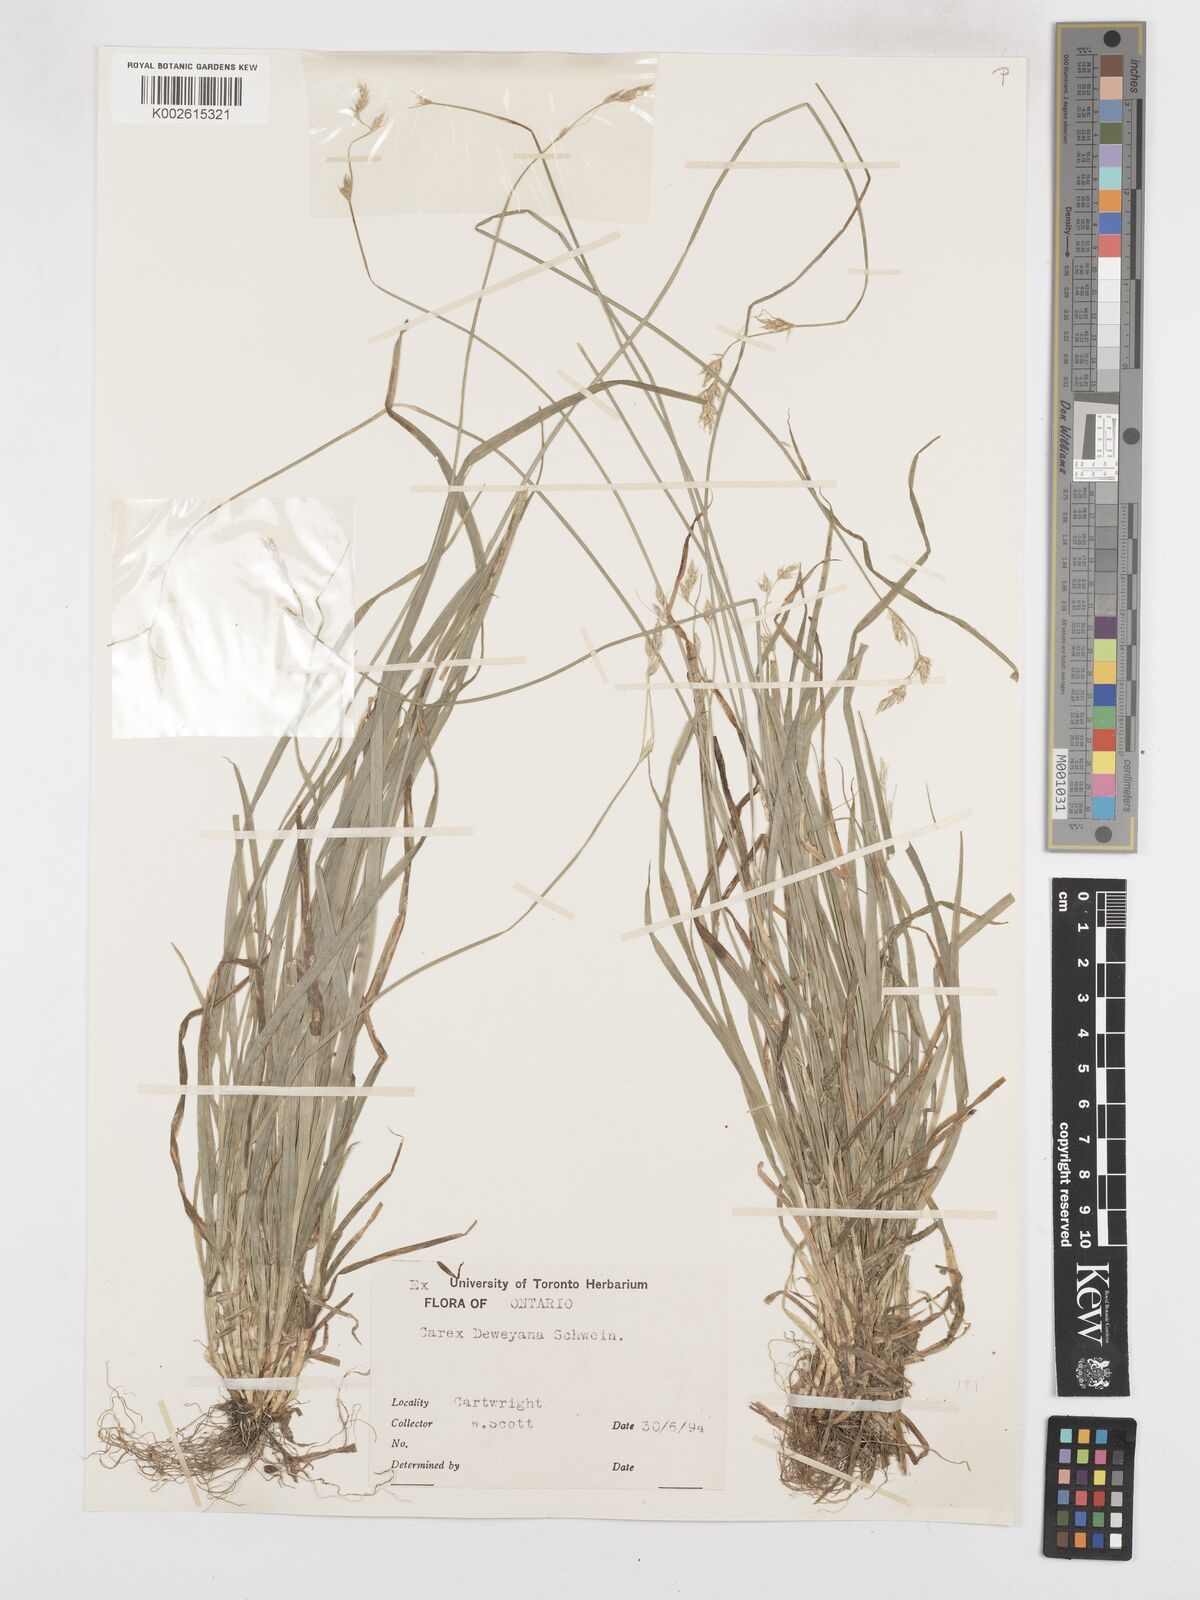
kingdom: Plantae
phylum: Tracheophyta
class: Liliopsida
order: Poales
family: Cyperaceae
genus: Carex
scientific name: Carex deweyana
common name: Dewey's sedge
